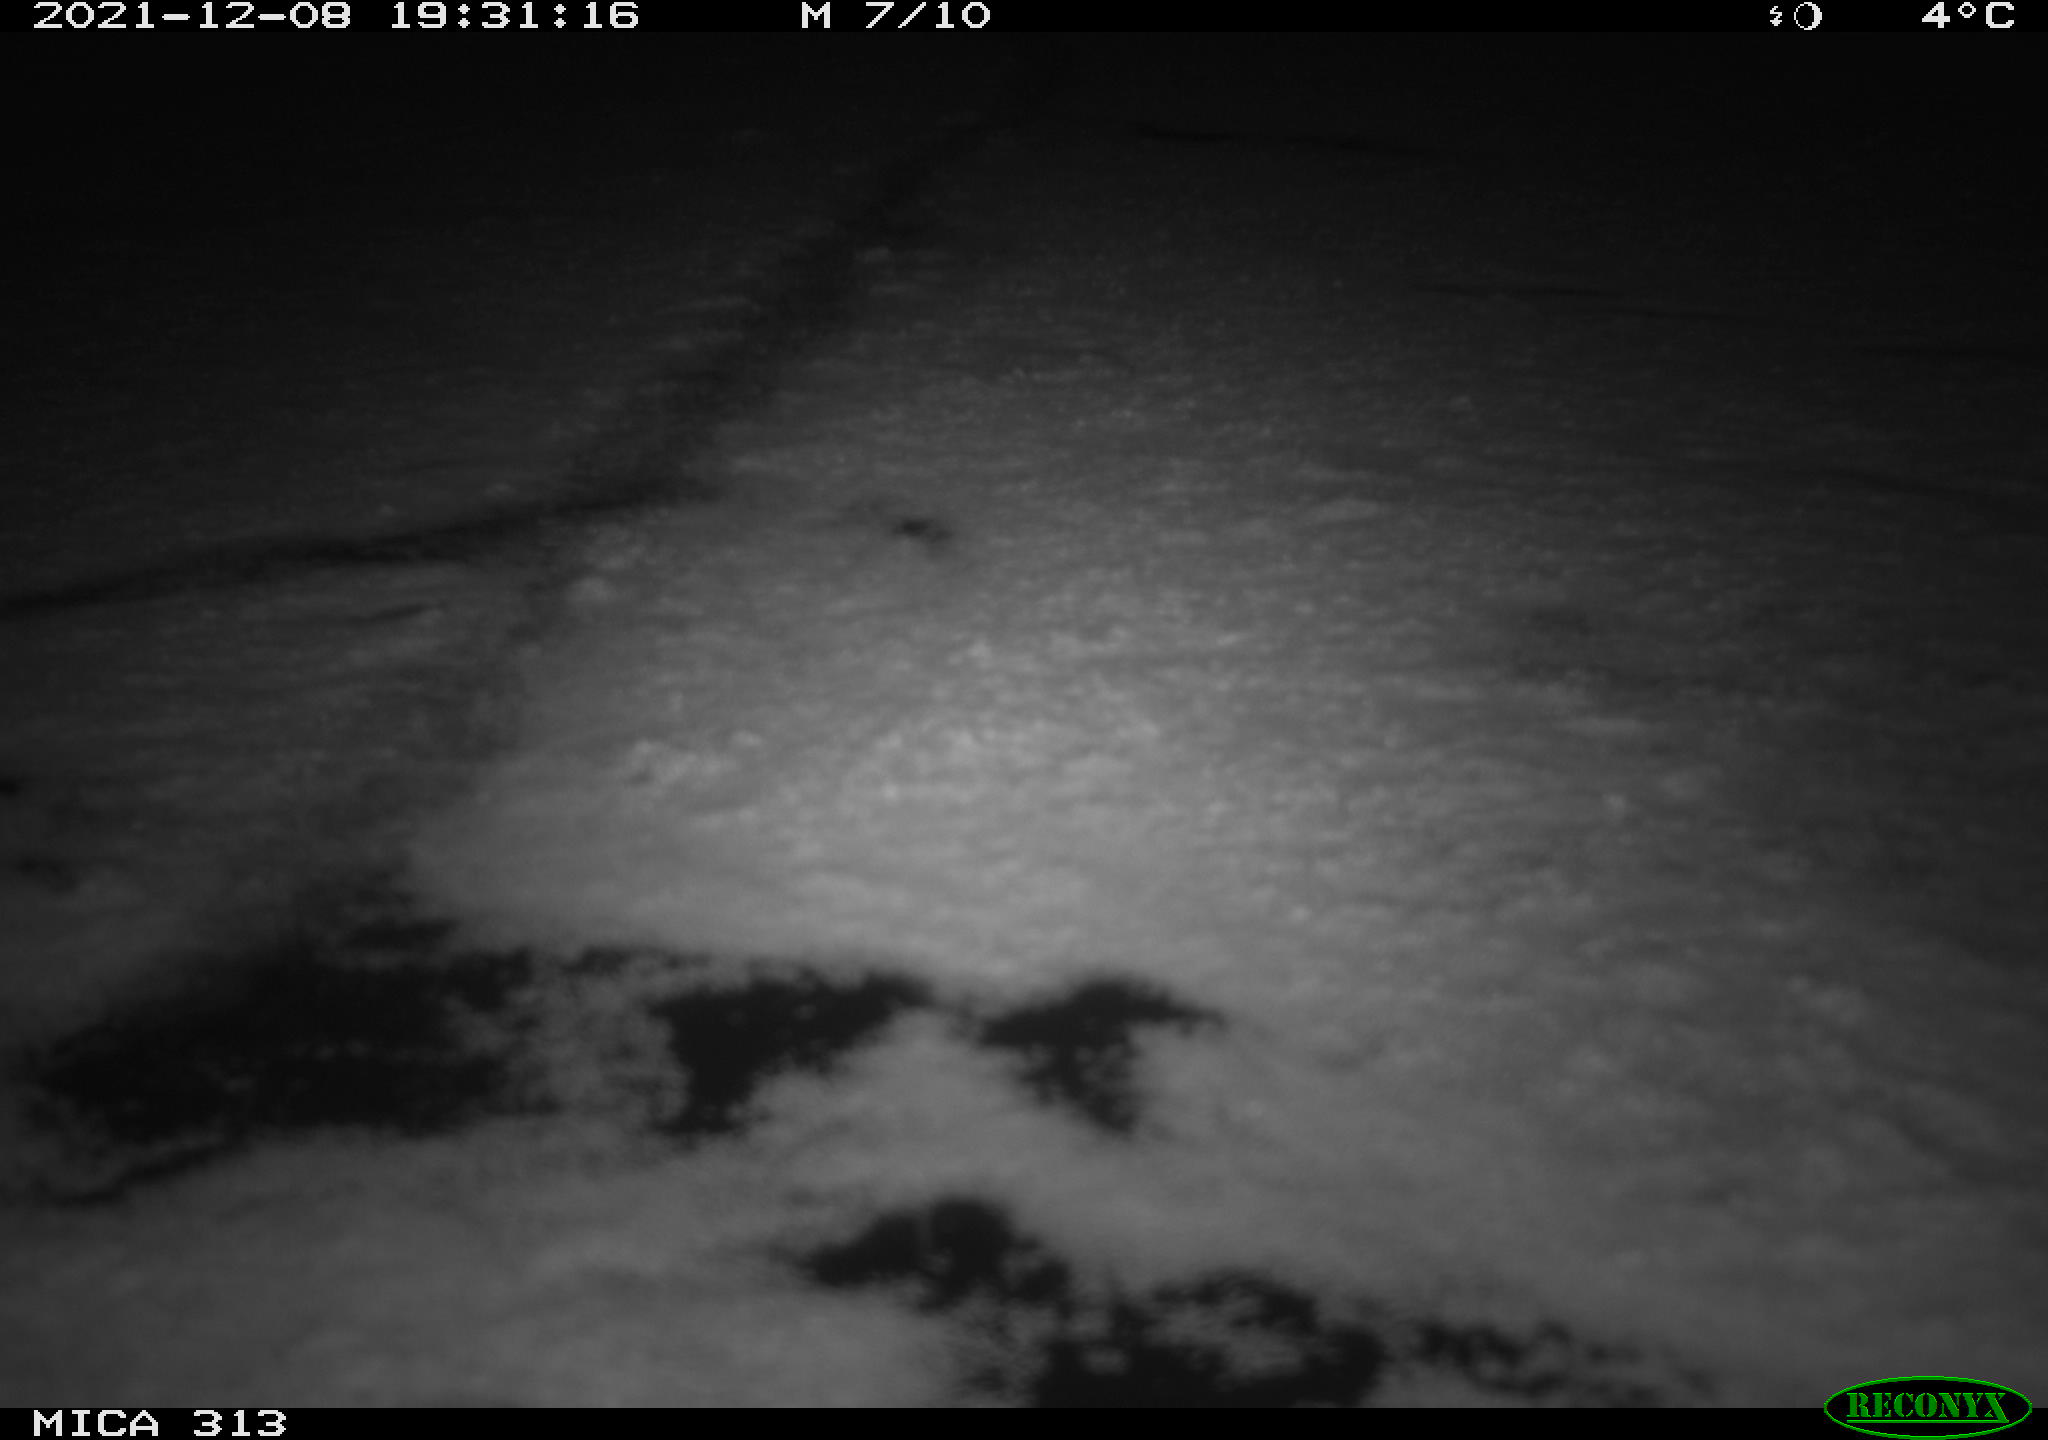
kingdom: Animalia
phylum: Chordata
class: Aves
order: Gruiformes
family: Rallidae
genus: Gallinula
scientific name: Gallinula chloropus
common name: Common moorhen
